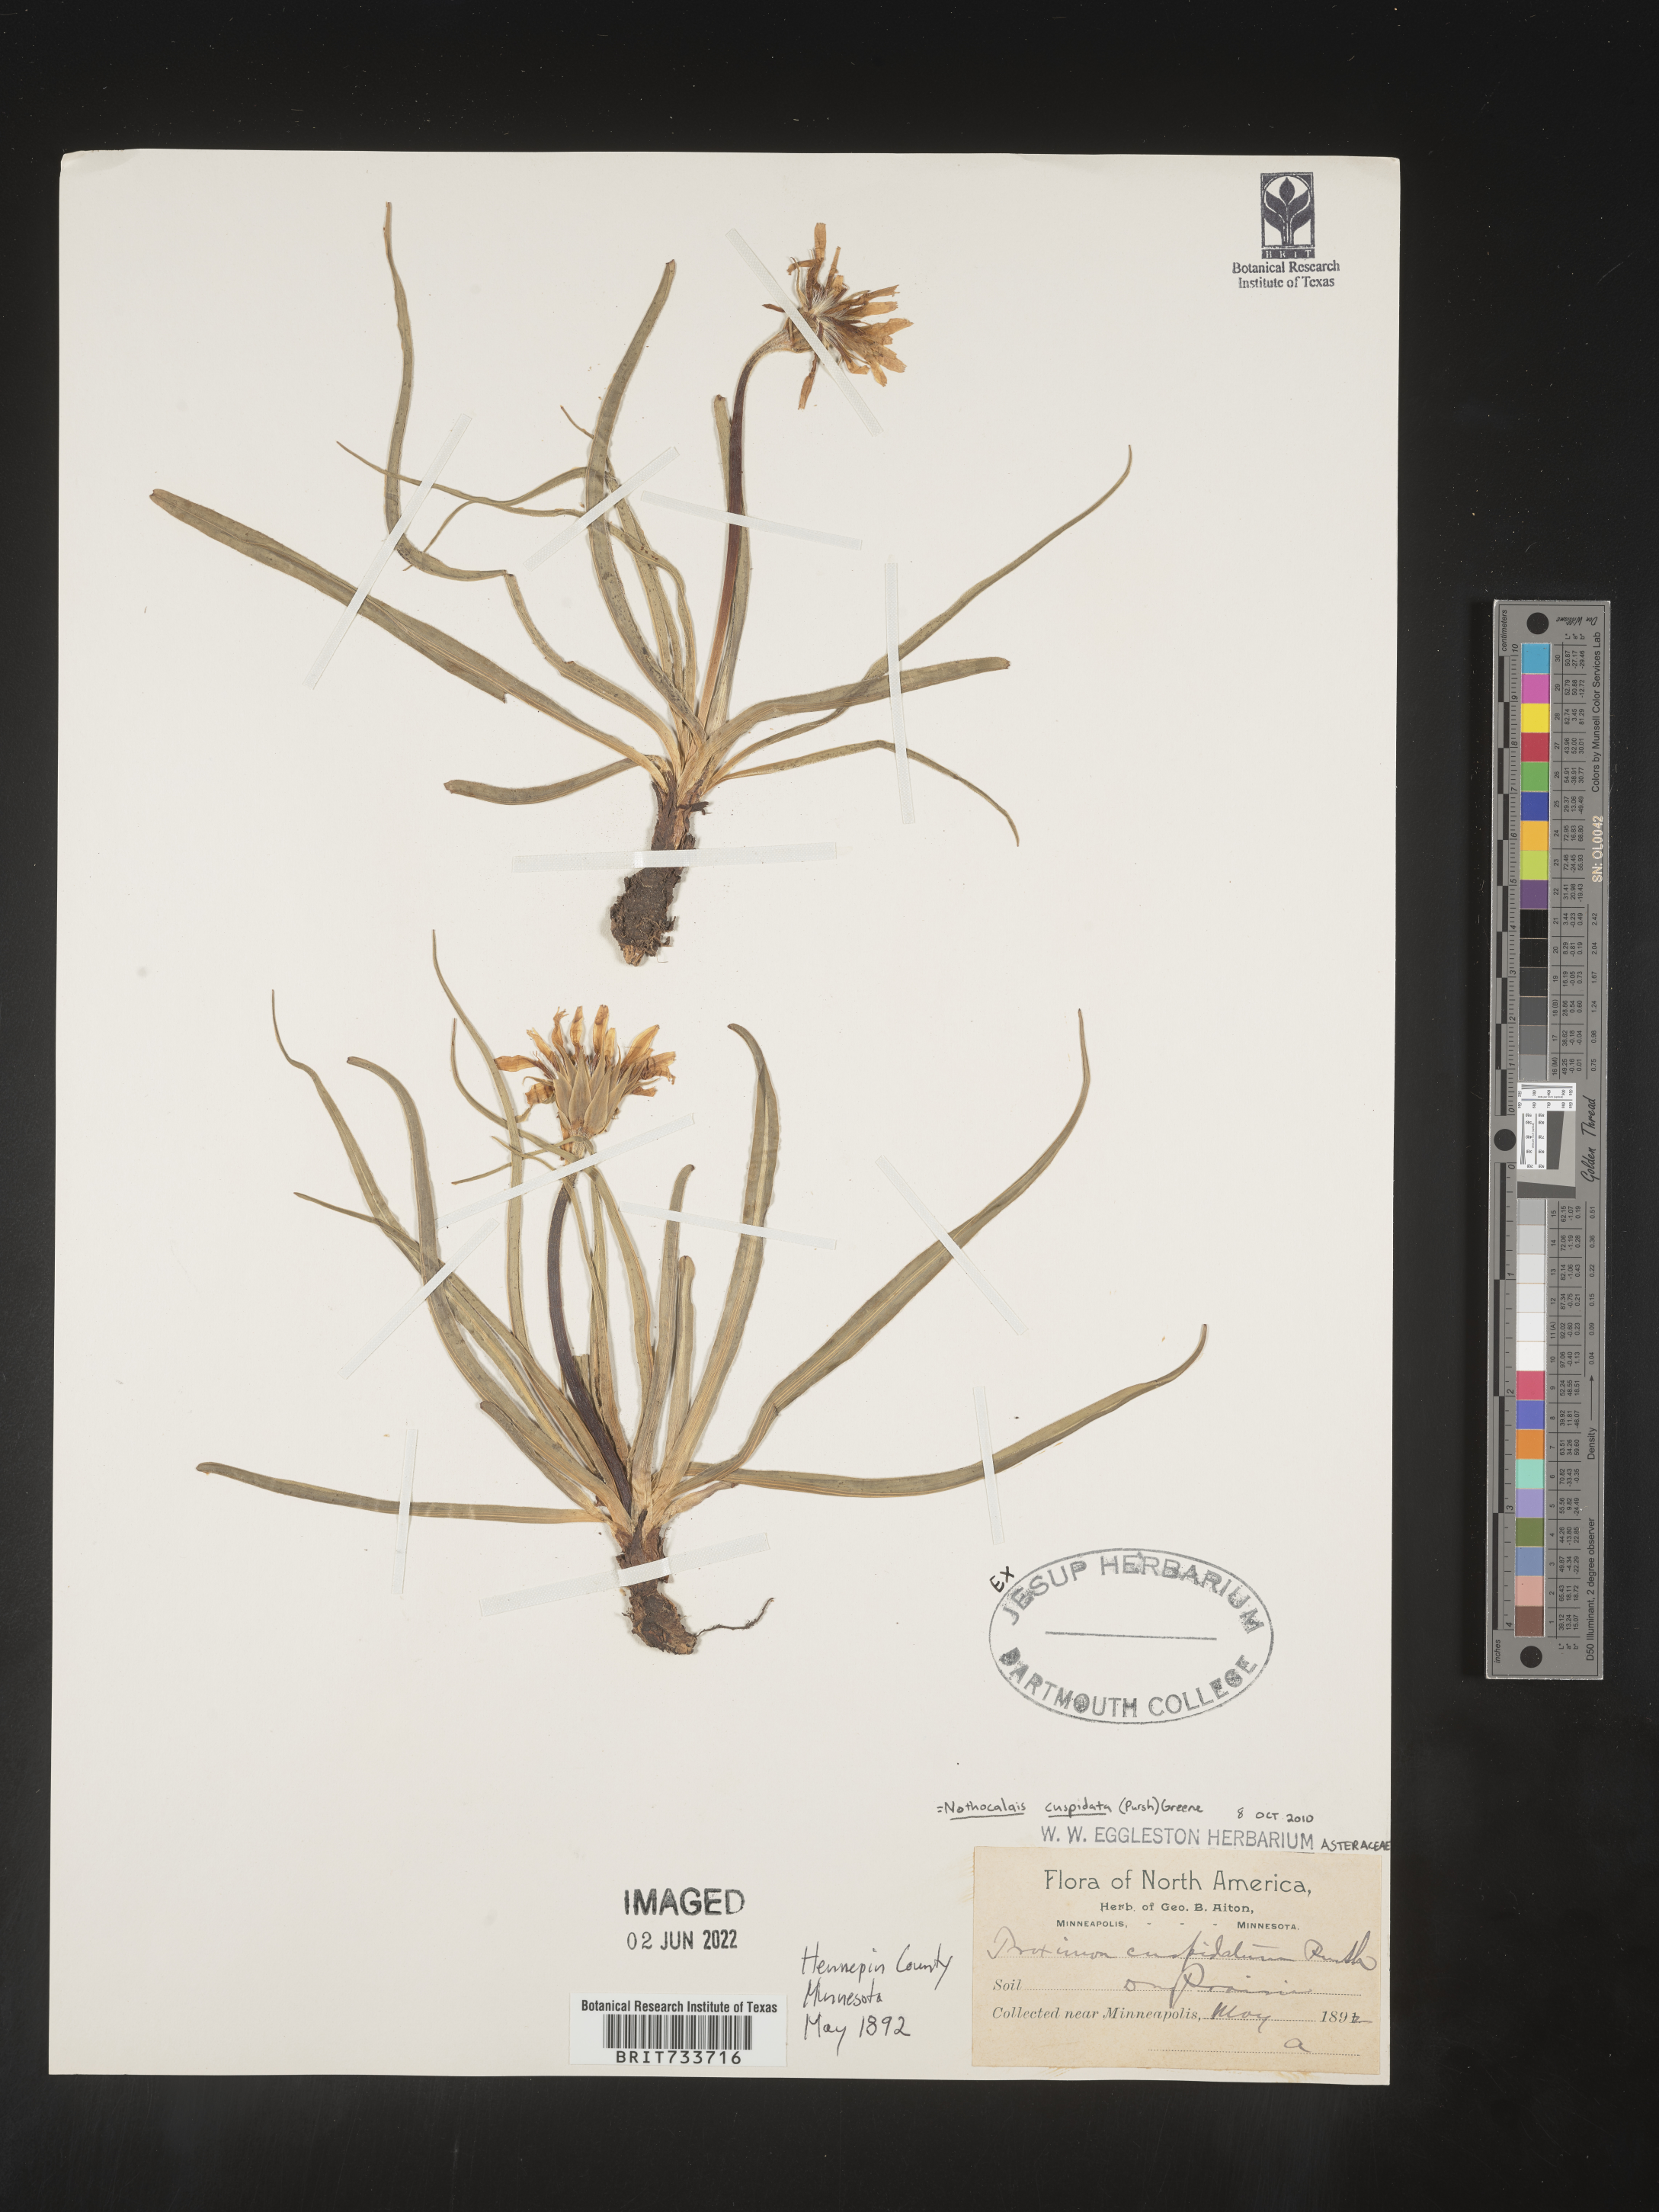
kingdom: Plantae
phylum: Tracheophyta
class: Magnoliopsida
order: Asterales
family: Asteraceae
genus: Microseris
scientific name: Microseris
